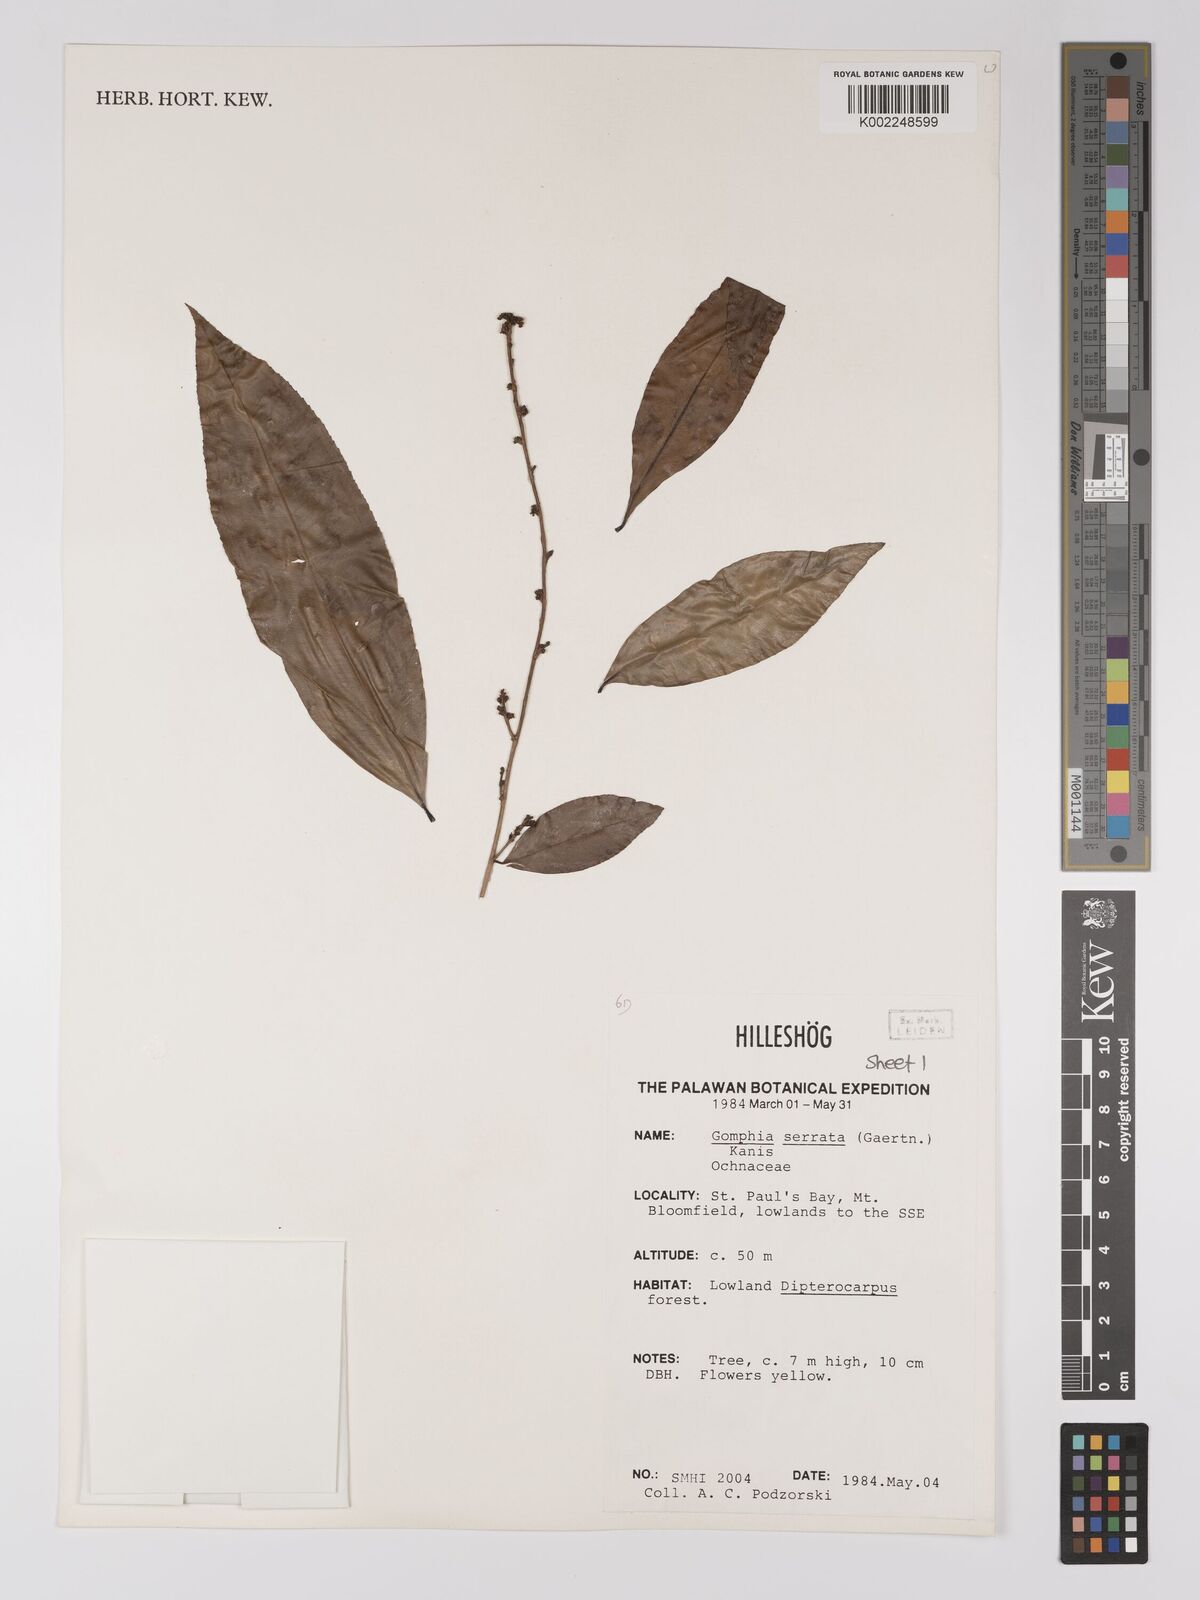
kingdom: Plantae
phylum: Tracheophyta
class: Magnoliopsida
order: Malpighiales
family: Ochnaceae
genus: Gomphia
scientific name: Gomphia serrata
